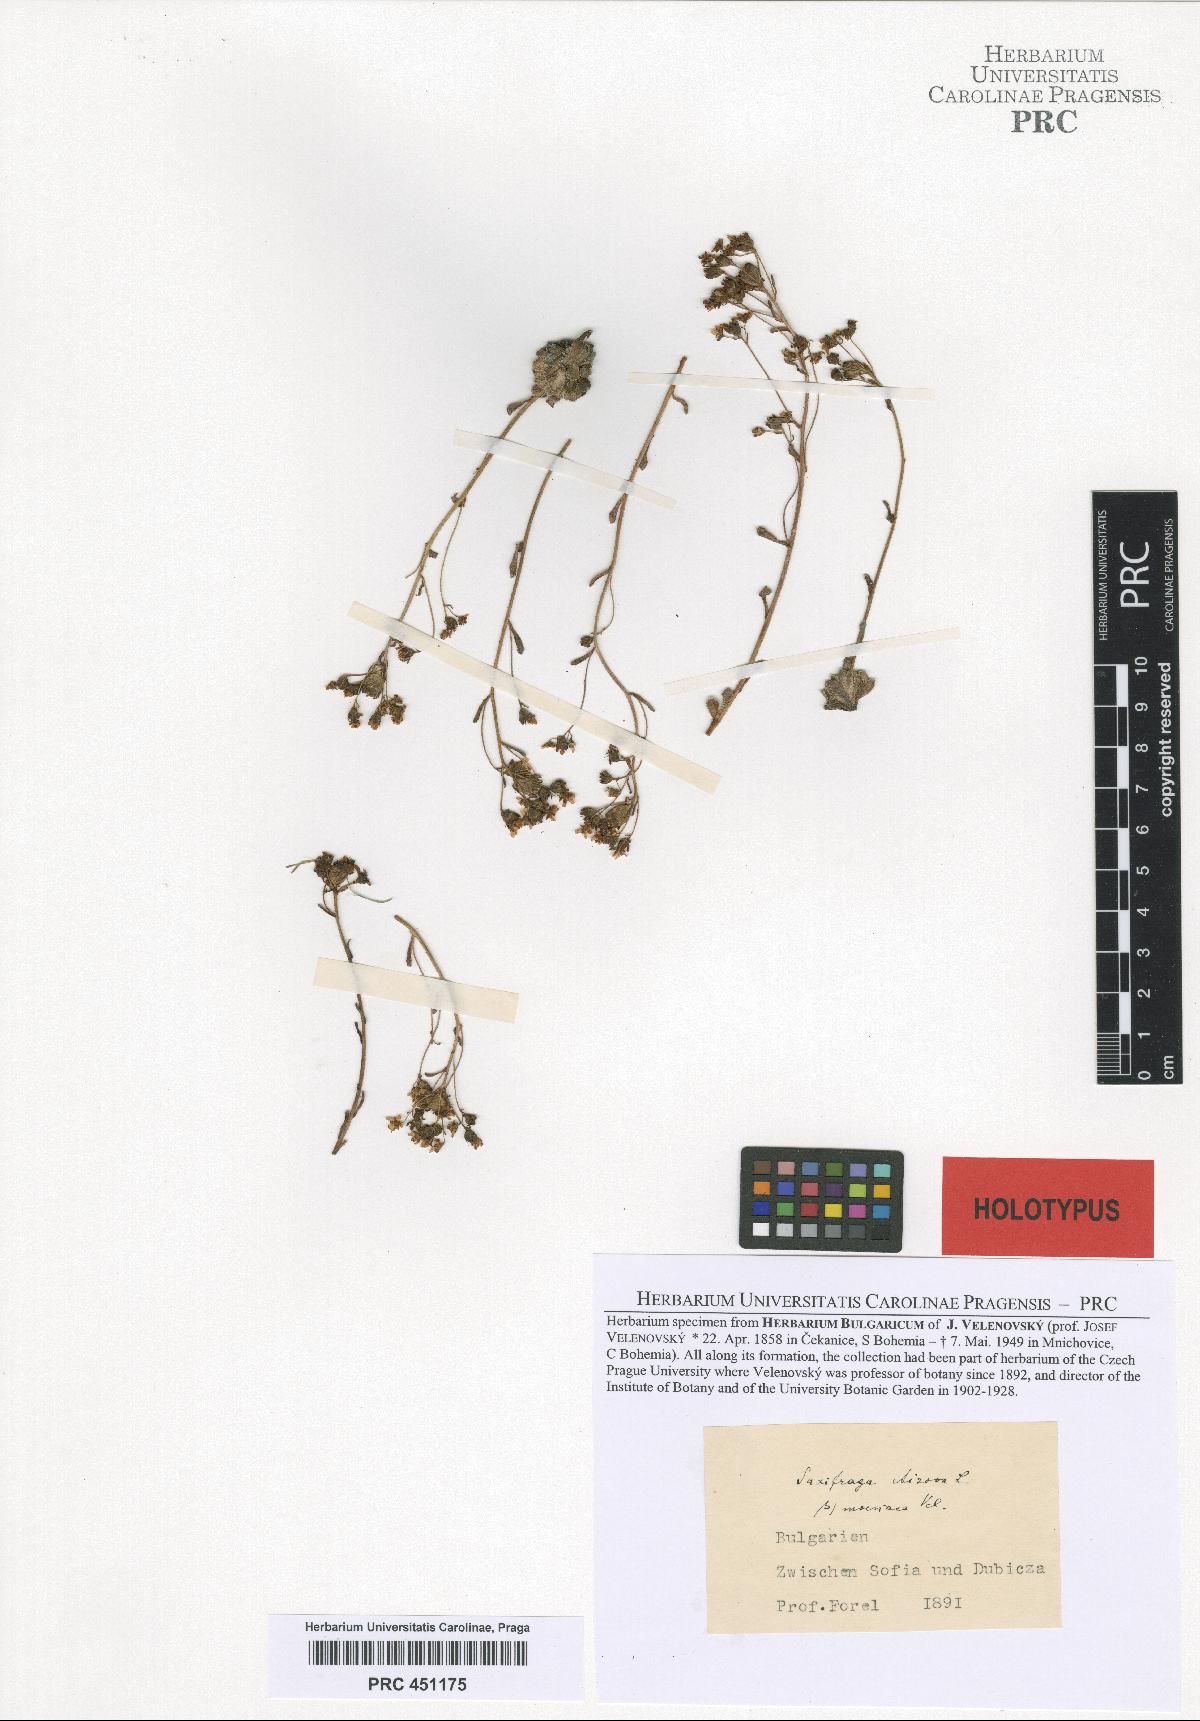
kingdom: Plantae
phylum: Tracheophyta
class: Magnoliopsida
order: Saxifragales
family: Saxifragaceae
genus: Saxifraga
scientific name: Saxifraga aizoon
